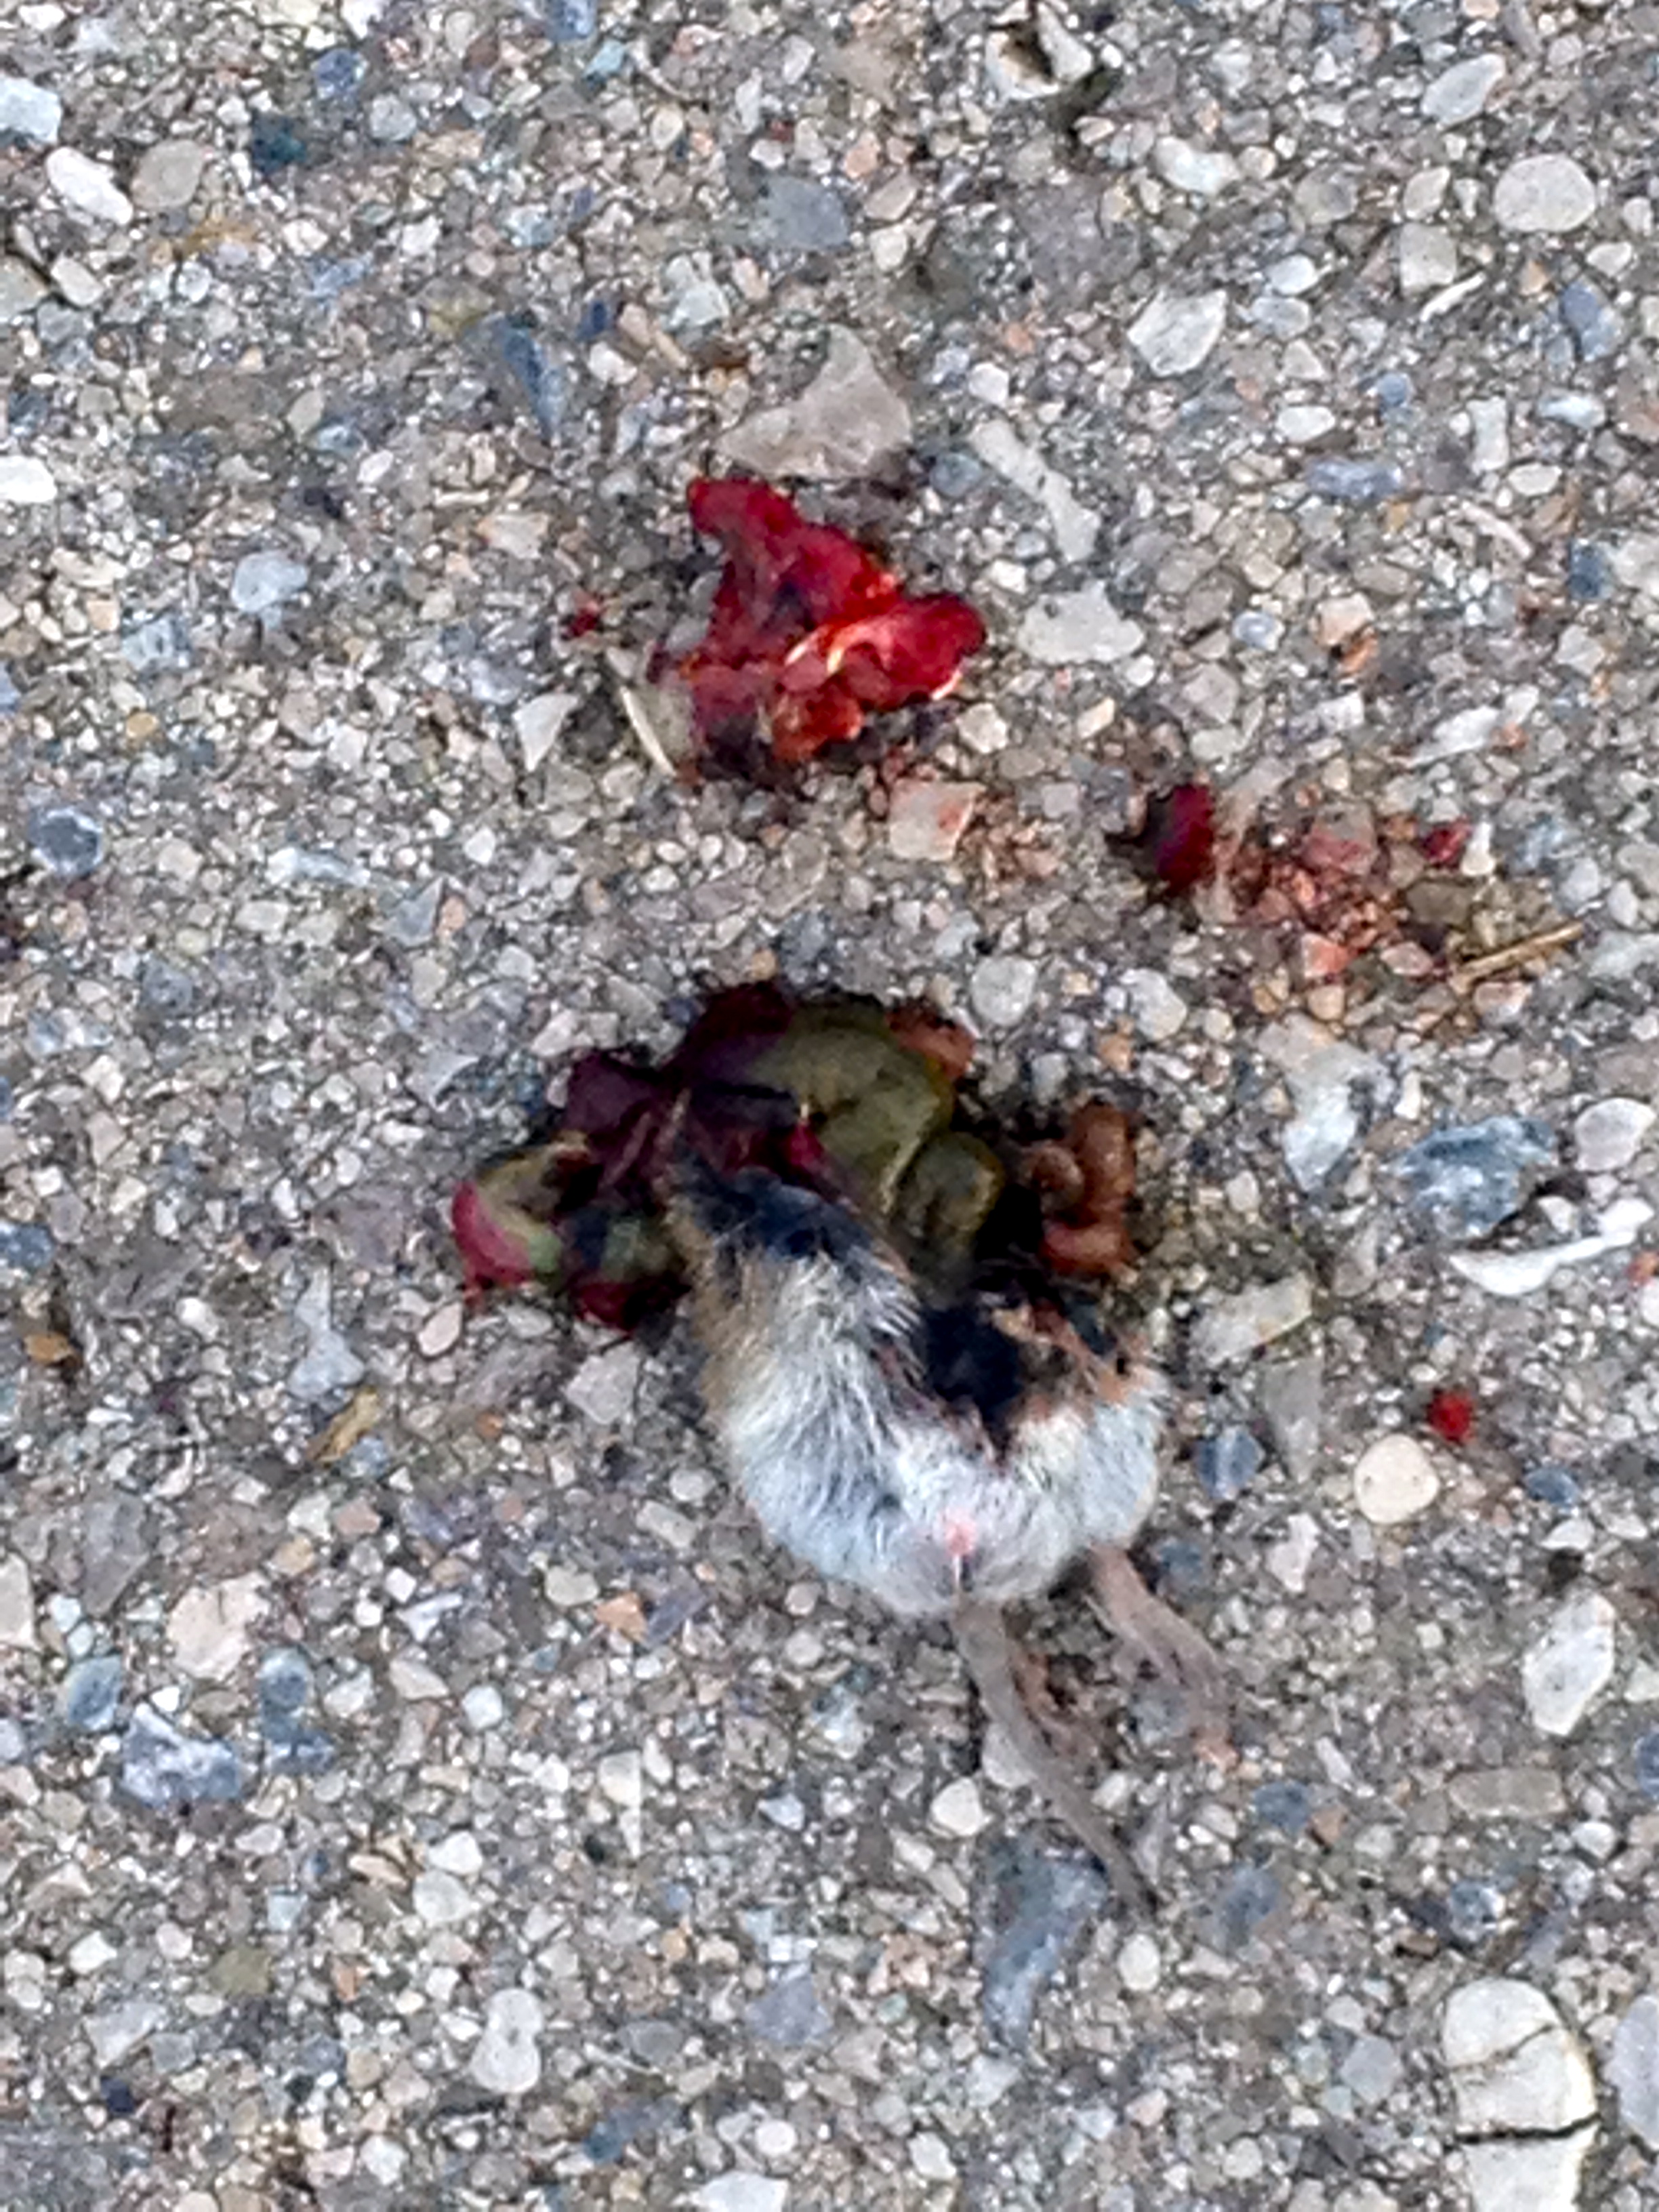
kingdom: Animalia
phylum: Chordata
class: Mammalia
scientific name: Mammalia
